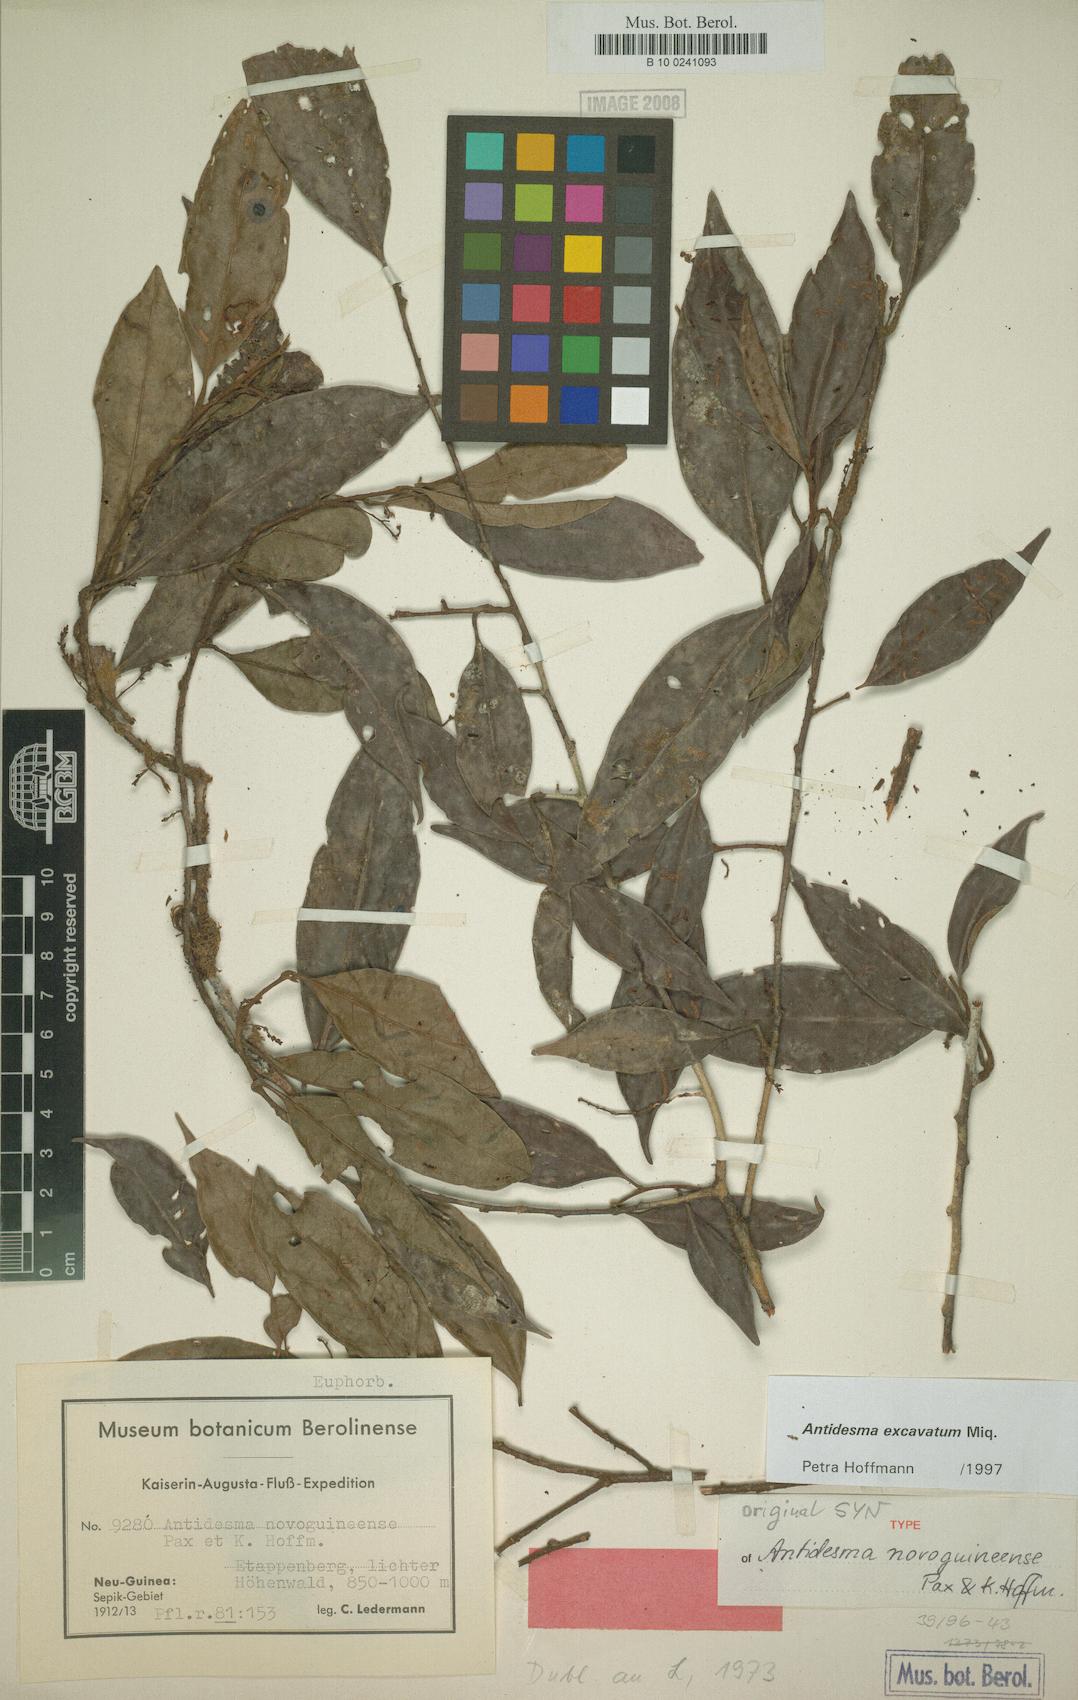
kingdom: Plantae
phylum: Tracheophyta
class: Magnoliopsida
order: Malpighiales
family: Phyllanthaceae
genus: Antidesma
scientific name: Antidesma excavatum
